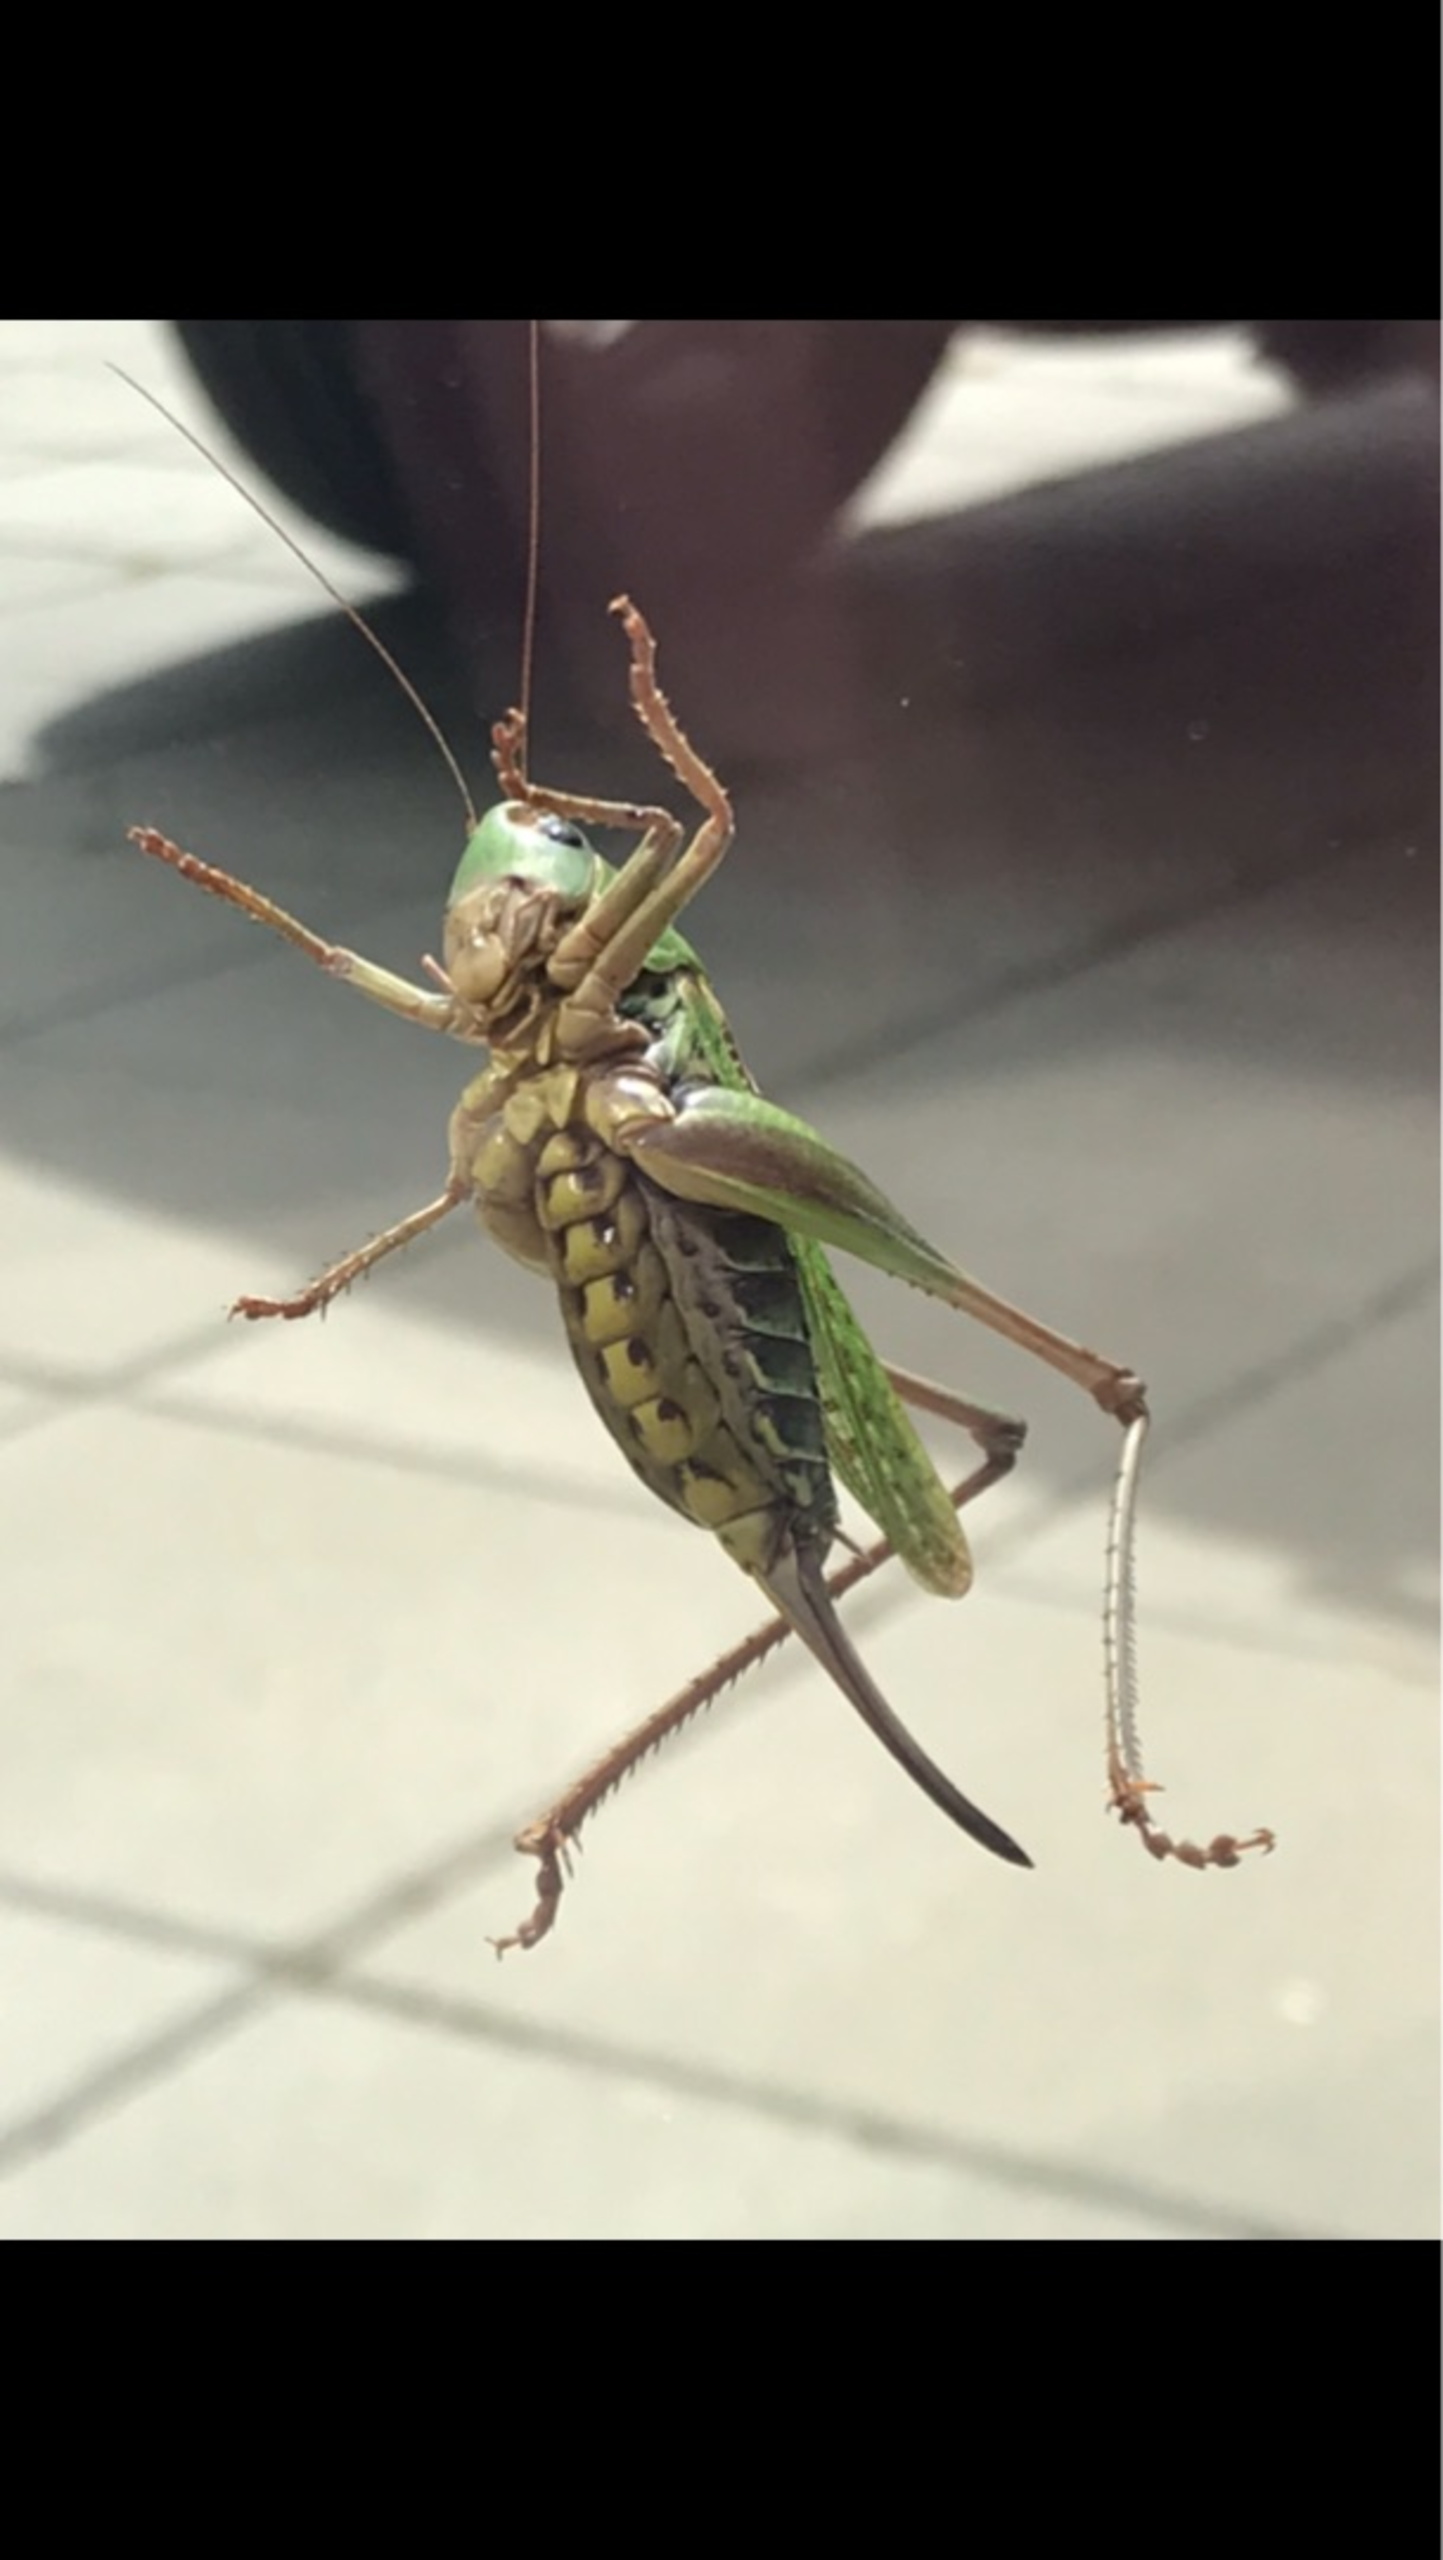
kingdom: Animalia
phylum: Arthropoda
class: Insecta
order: Orthoptera
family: Tettigoniidae
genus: Decticus
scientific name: Decticus verrucivorus
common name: Vortebider
